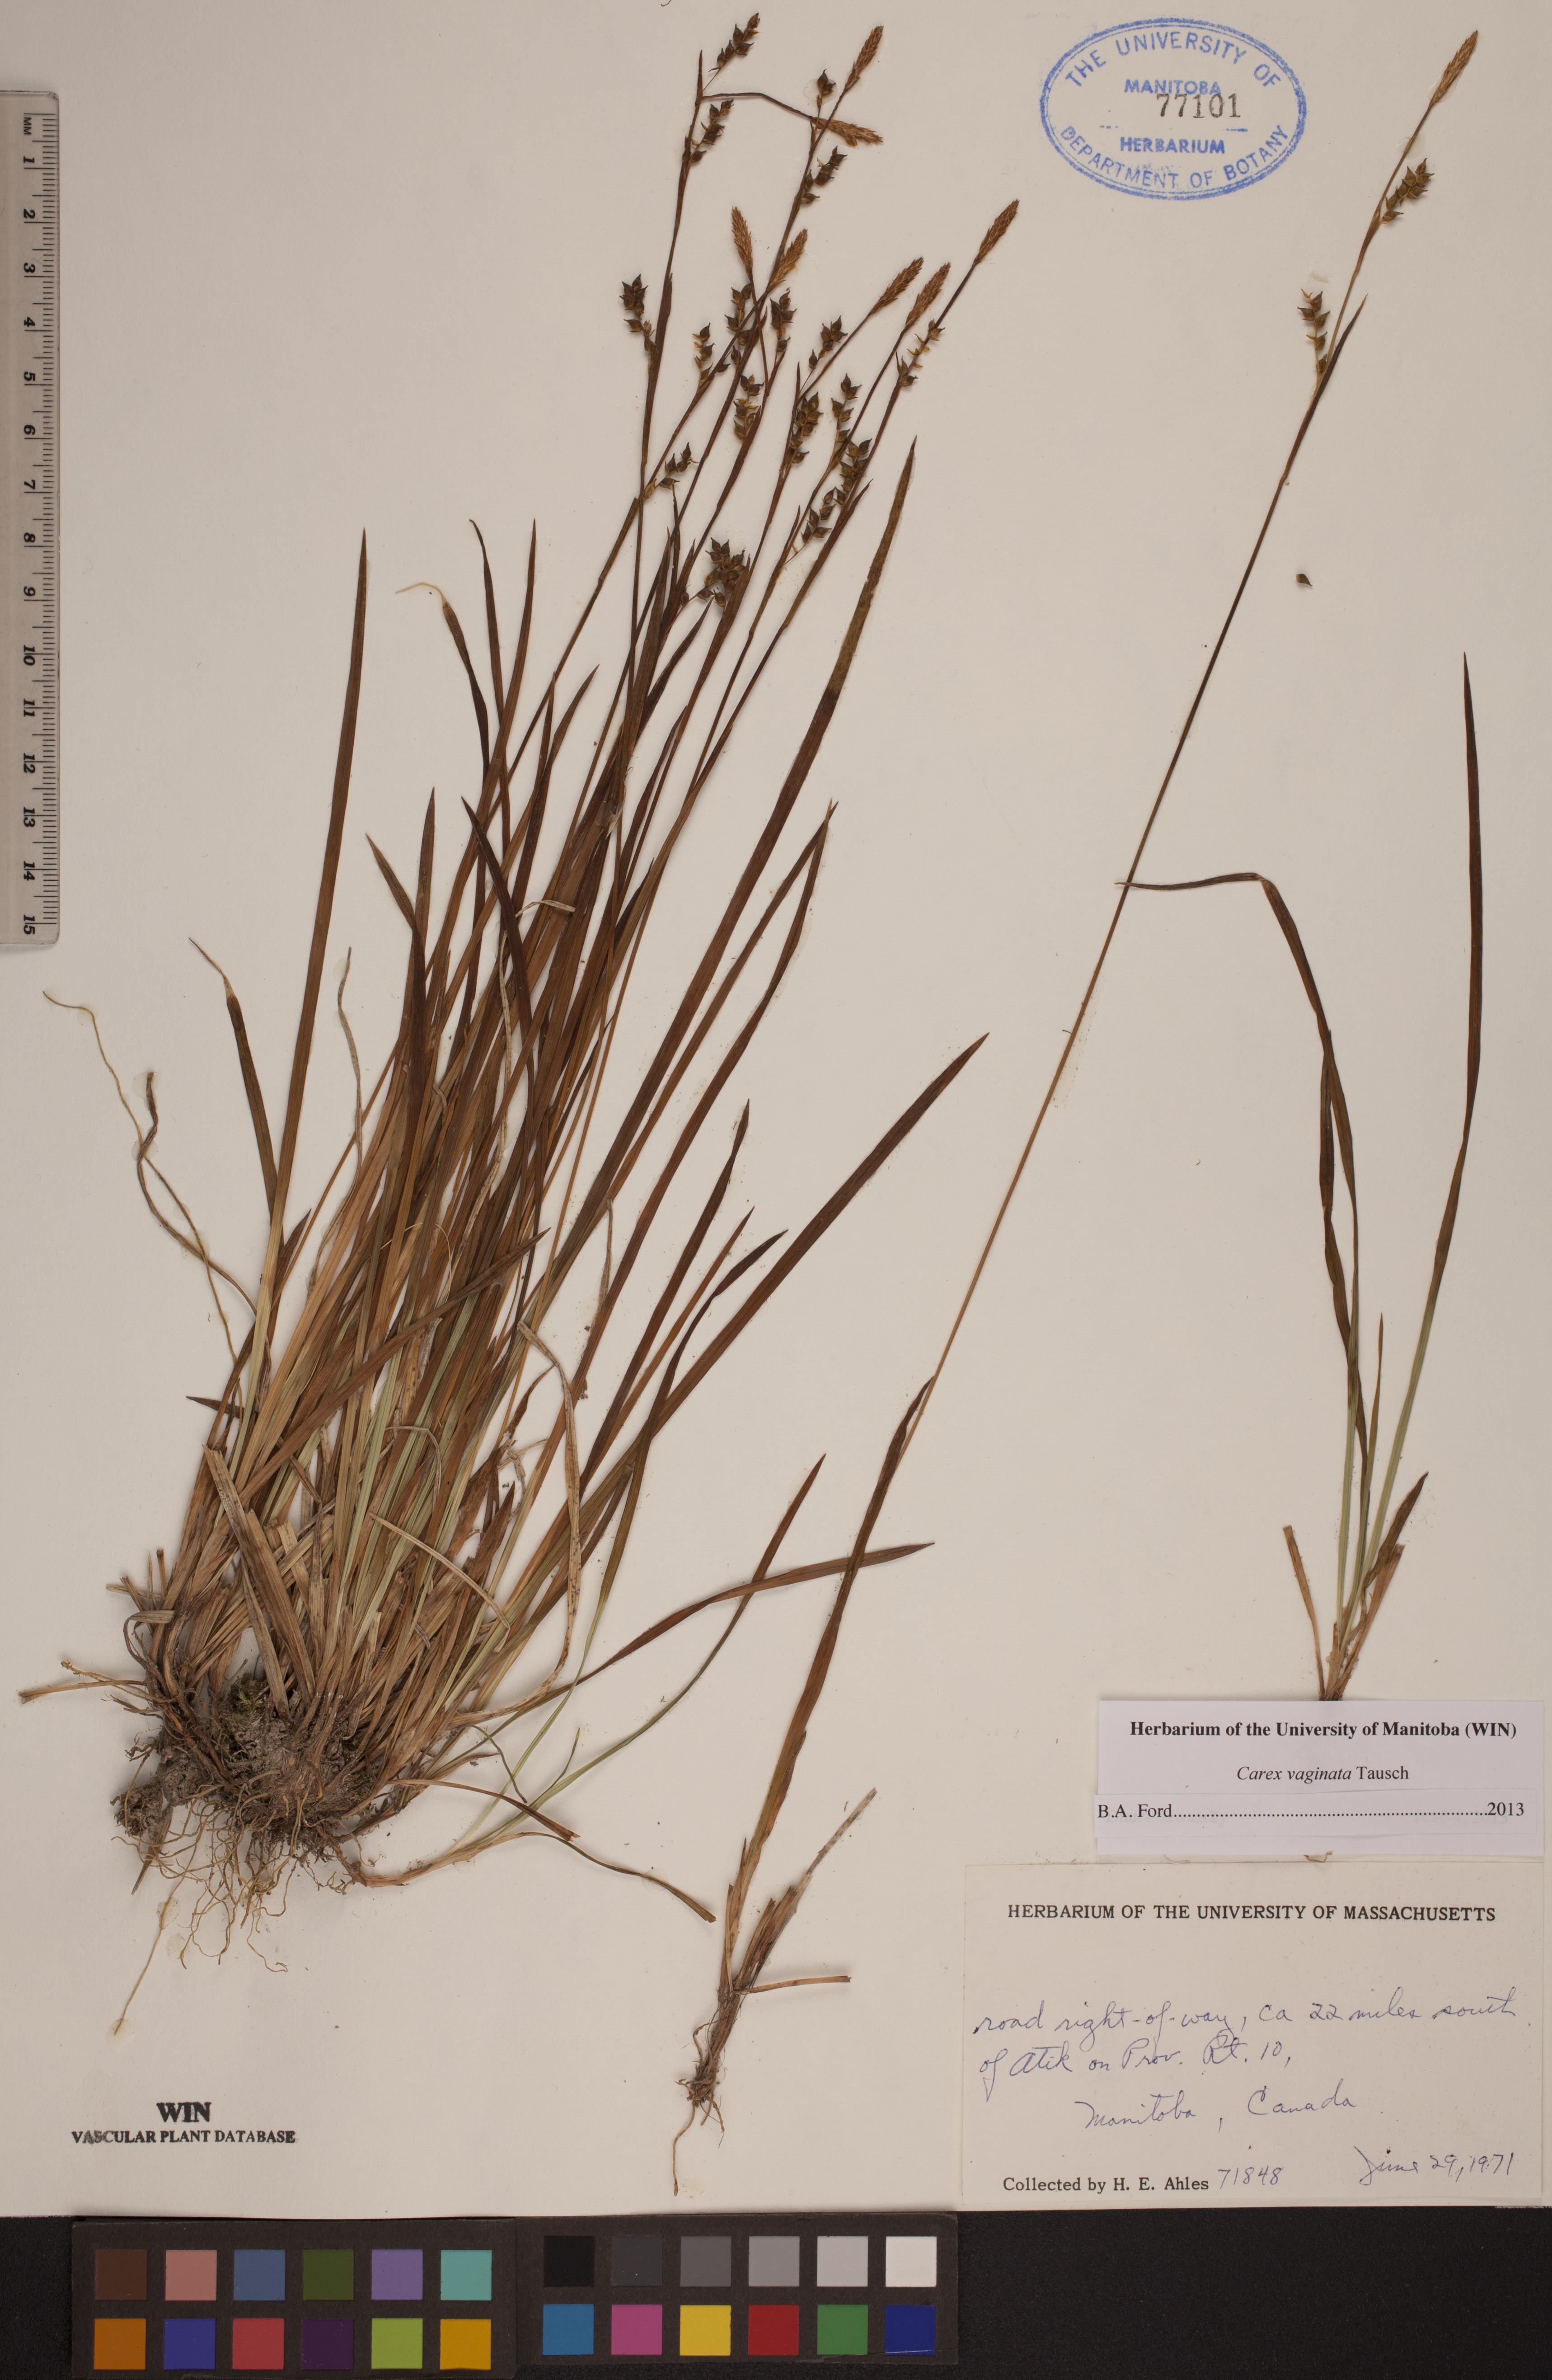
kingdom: Plantae
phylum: Tracheophyta
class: Liliopsida
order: Poales
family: Cyperaceae
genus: Carex
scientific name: Carex vaginata
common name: Sheathed sedge
